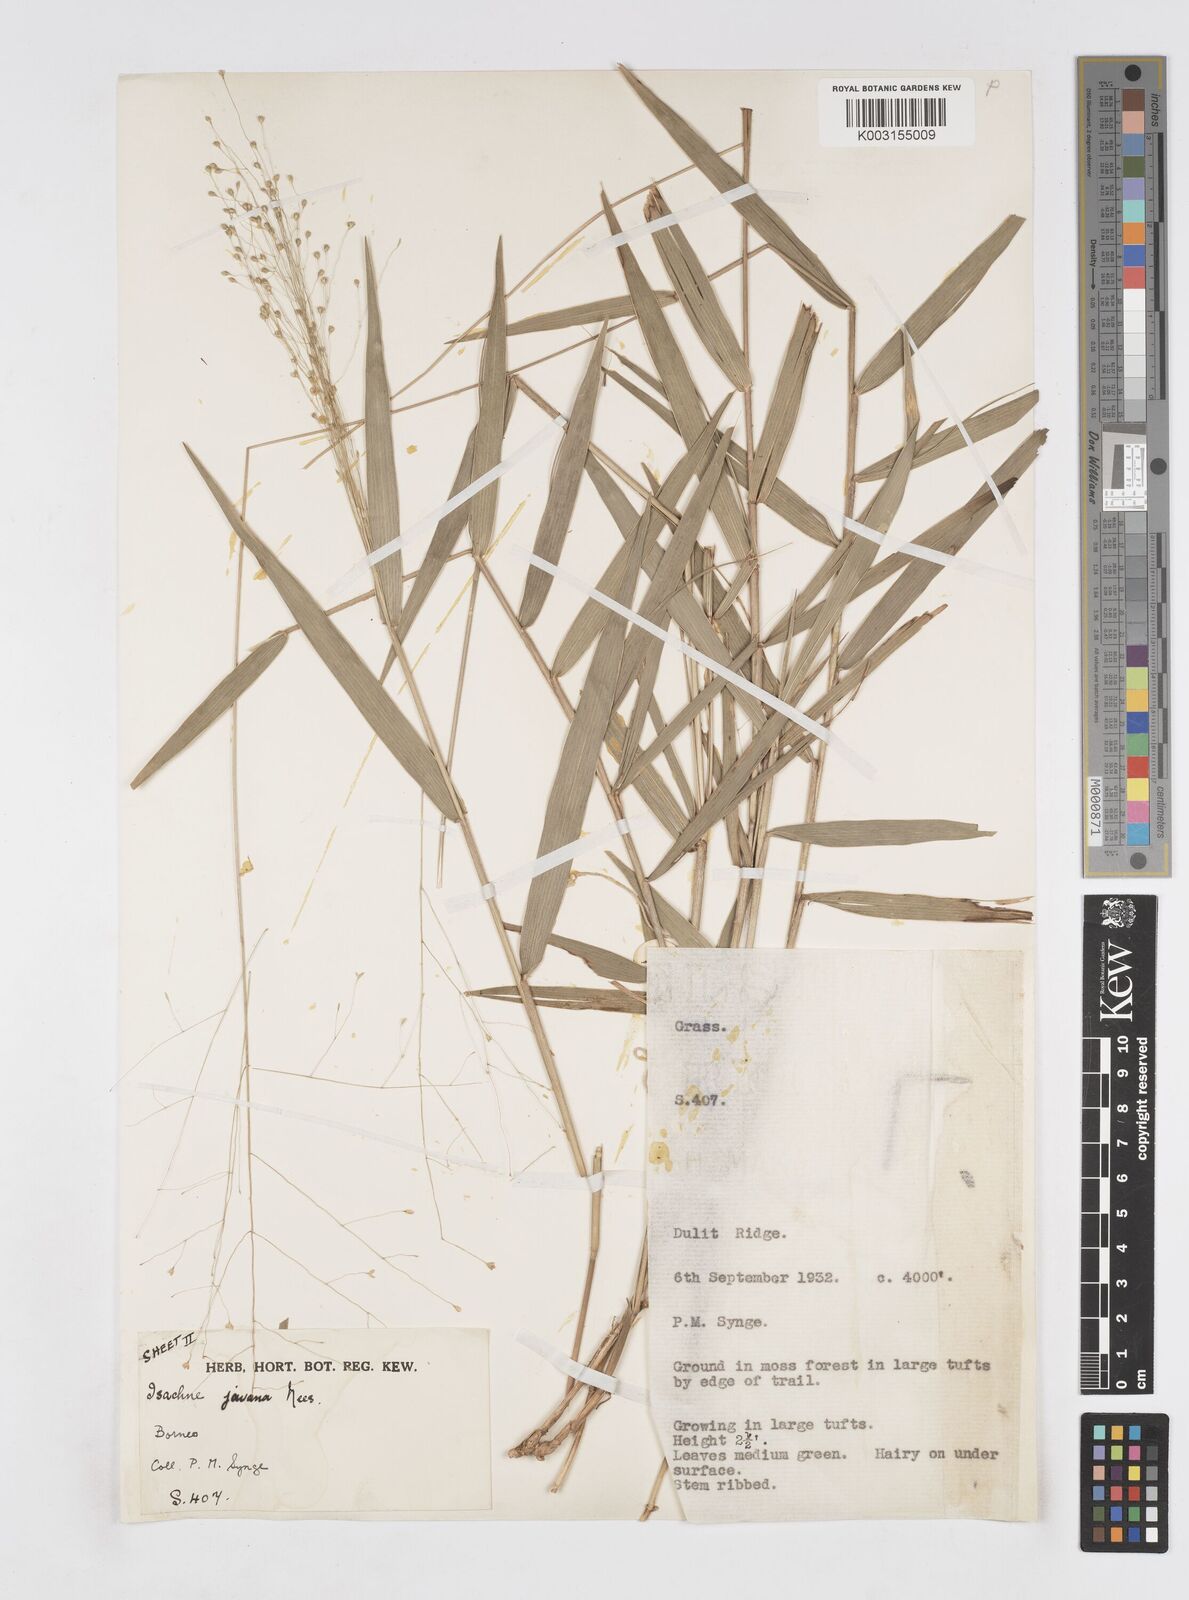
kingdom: Plantae
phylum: Tracheophyta
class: Liliopsida
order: Poales
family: Poaceae
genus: Isachne
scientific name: Isachne kinabaluensis
